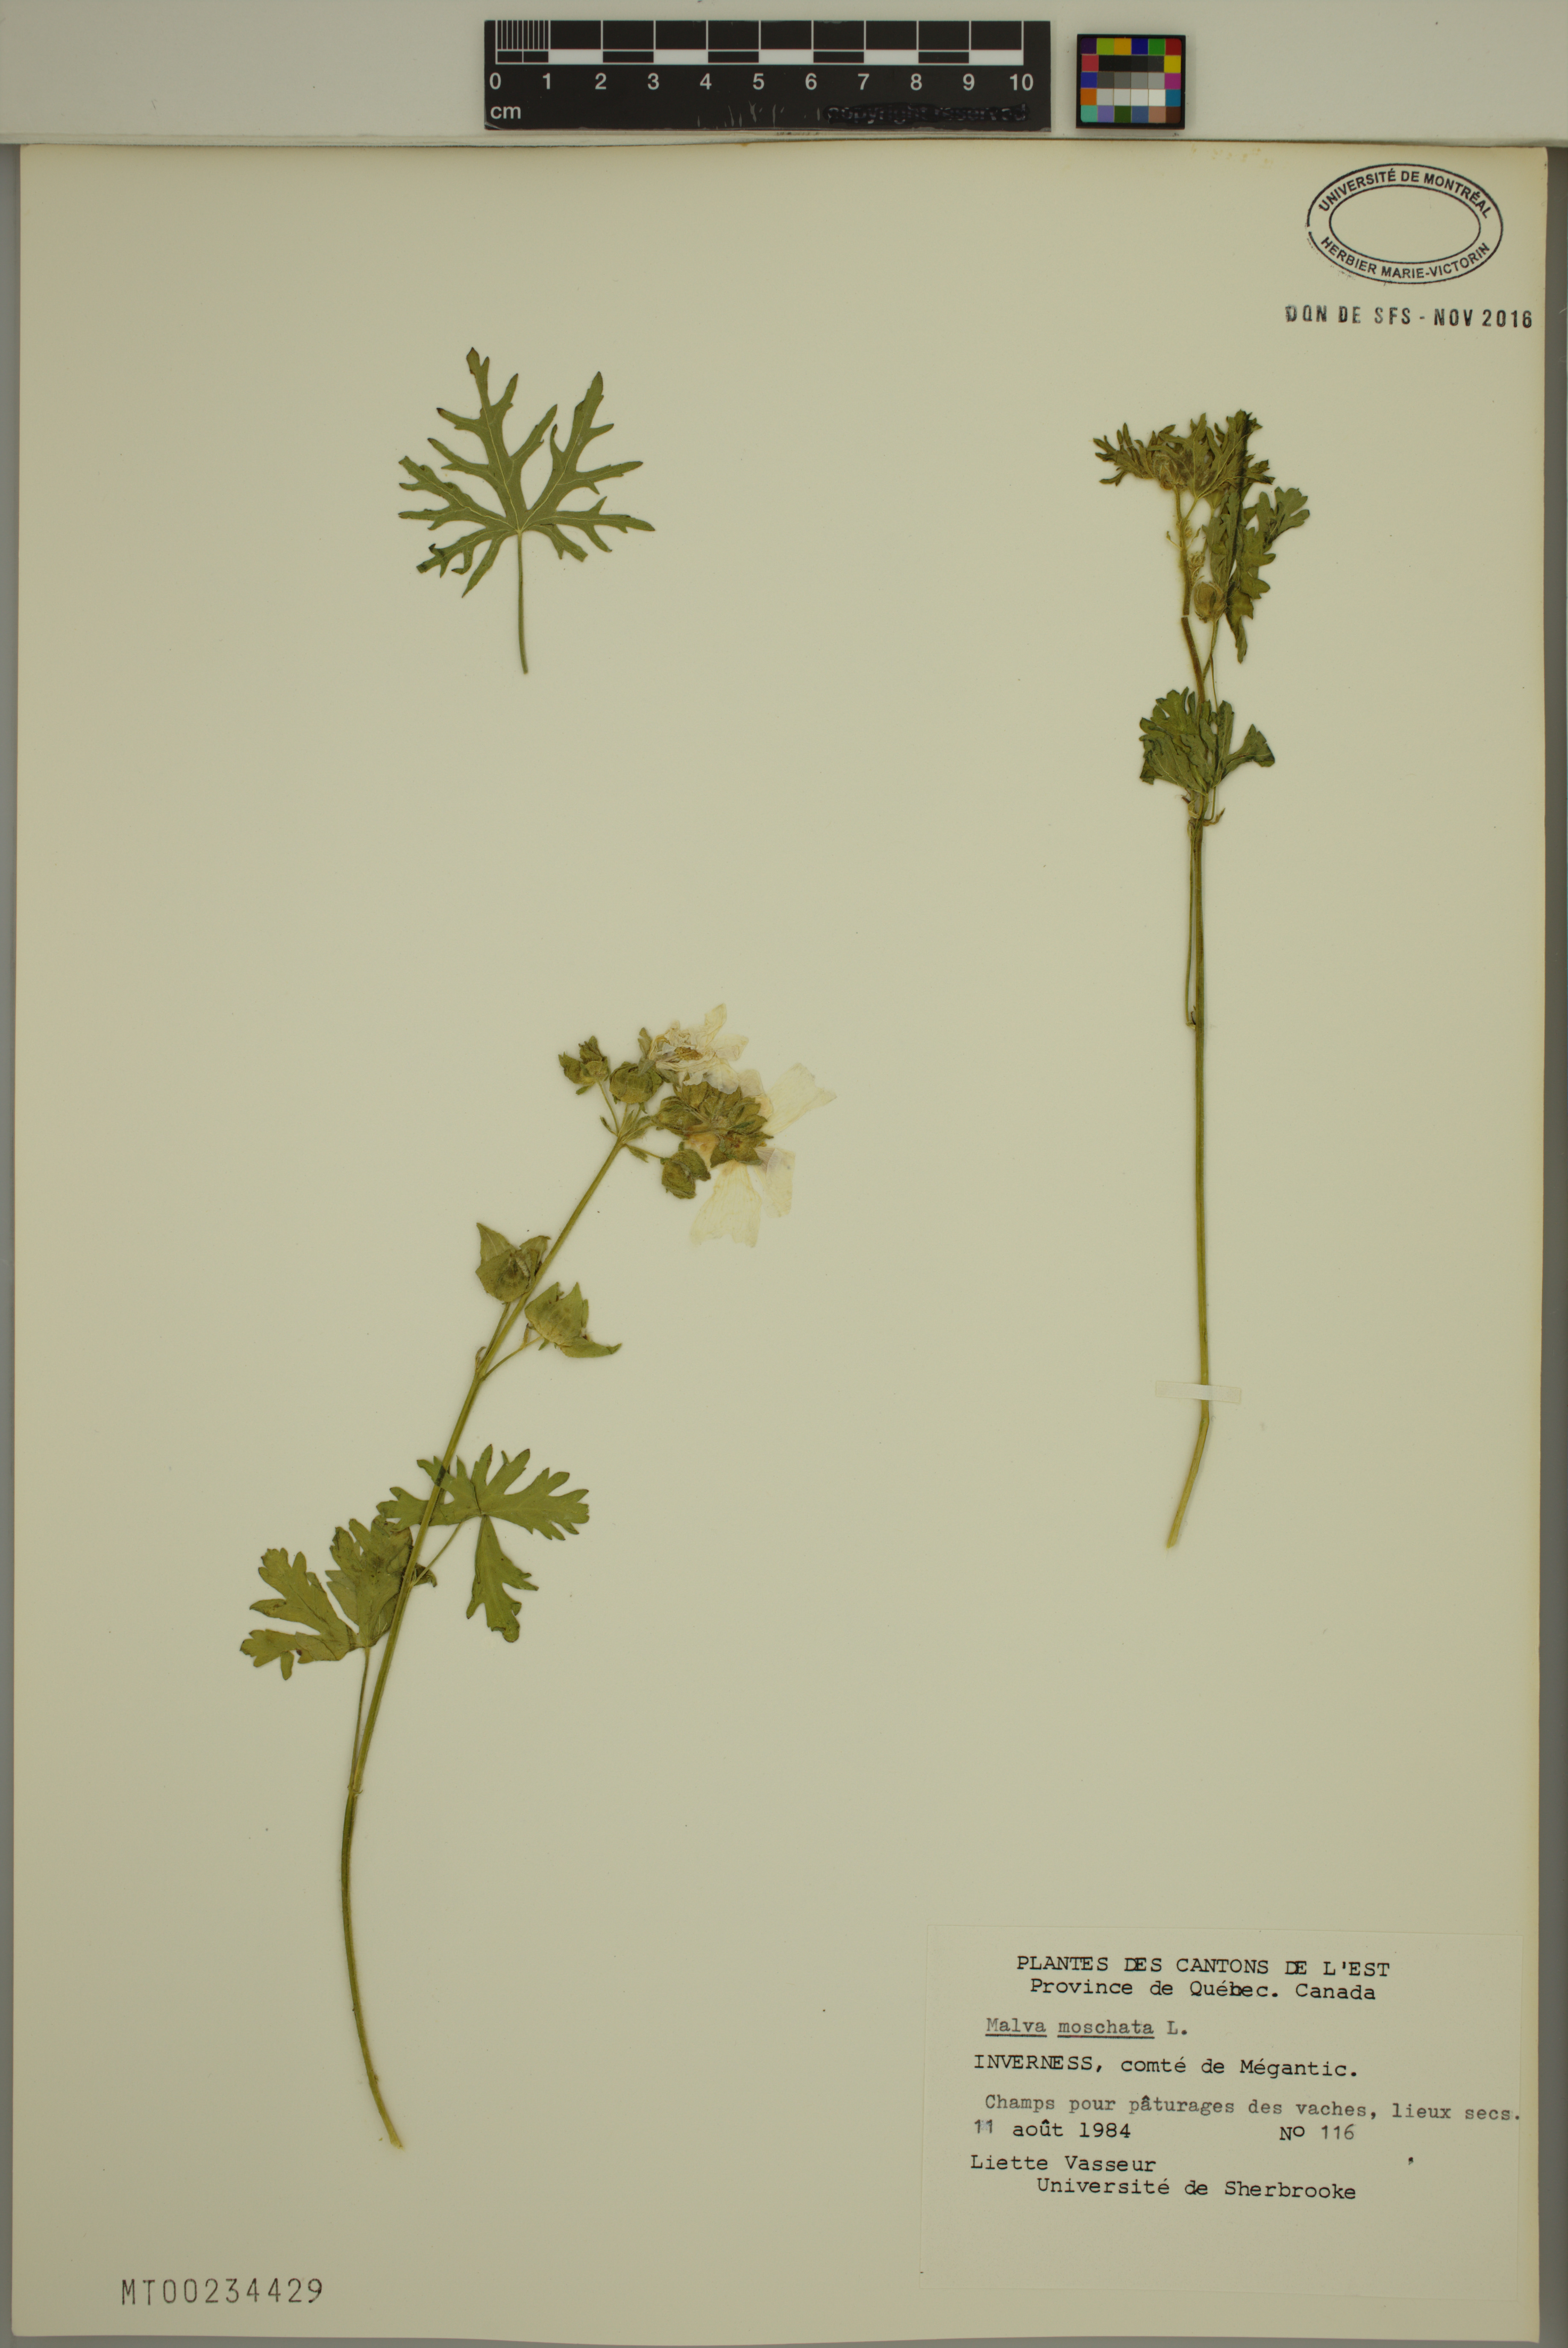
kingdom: Plantae
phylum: Tracheophyta
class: Magnoliopsida
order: Malvales
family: Malvaceae
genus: Malva
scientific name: Malva moschata
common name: Musk mallow
